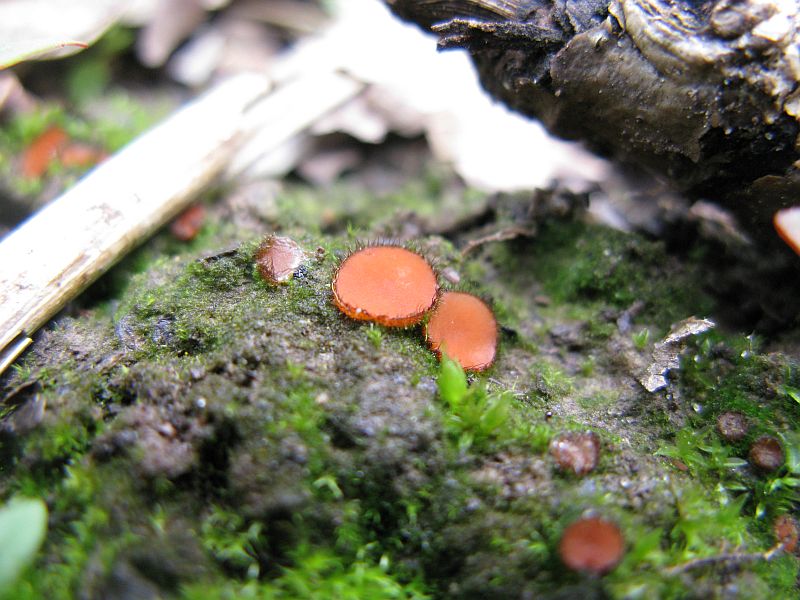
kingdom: Fungi
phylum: Ascomycota
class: Pezizomycetes
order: Pezizales
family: Pyronemataceae
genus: Scutellinia
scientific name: Scutellinia scutellata
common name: frynset skjoldbæger
